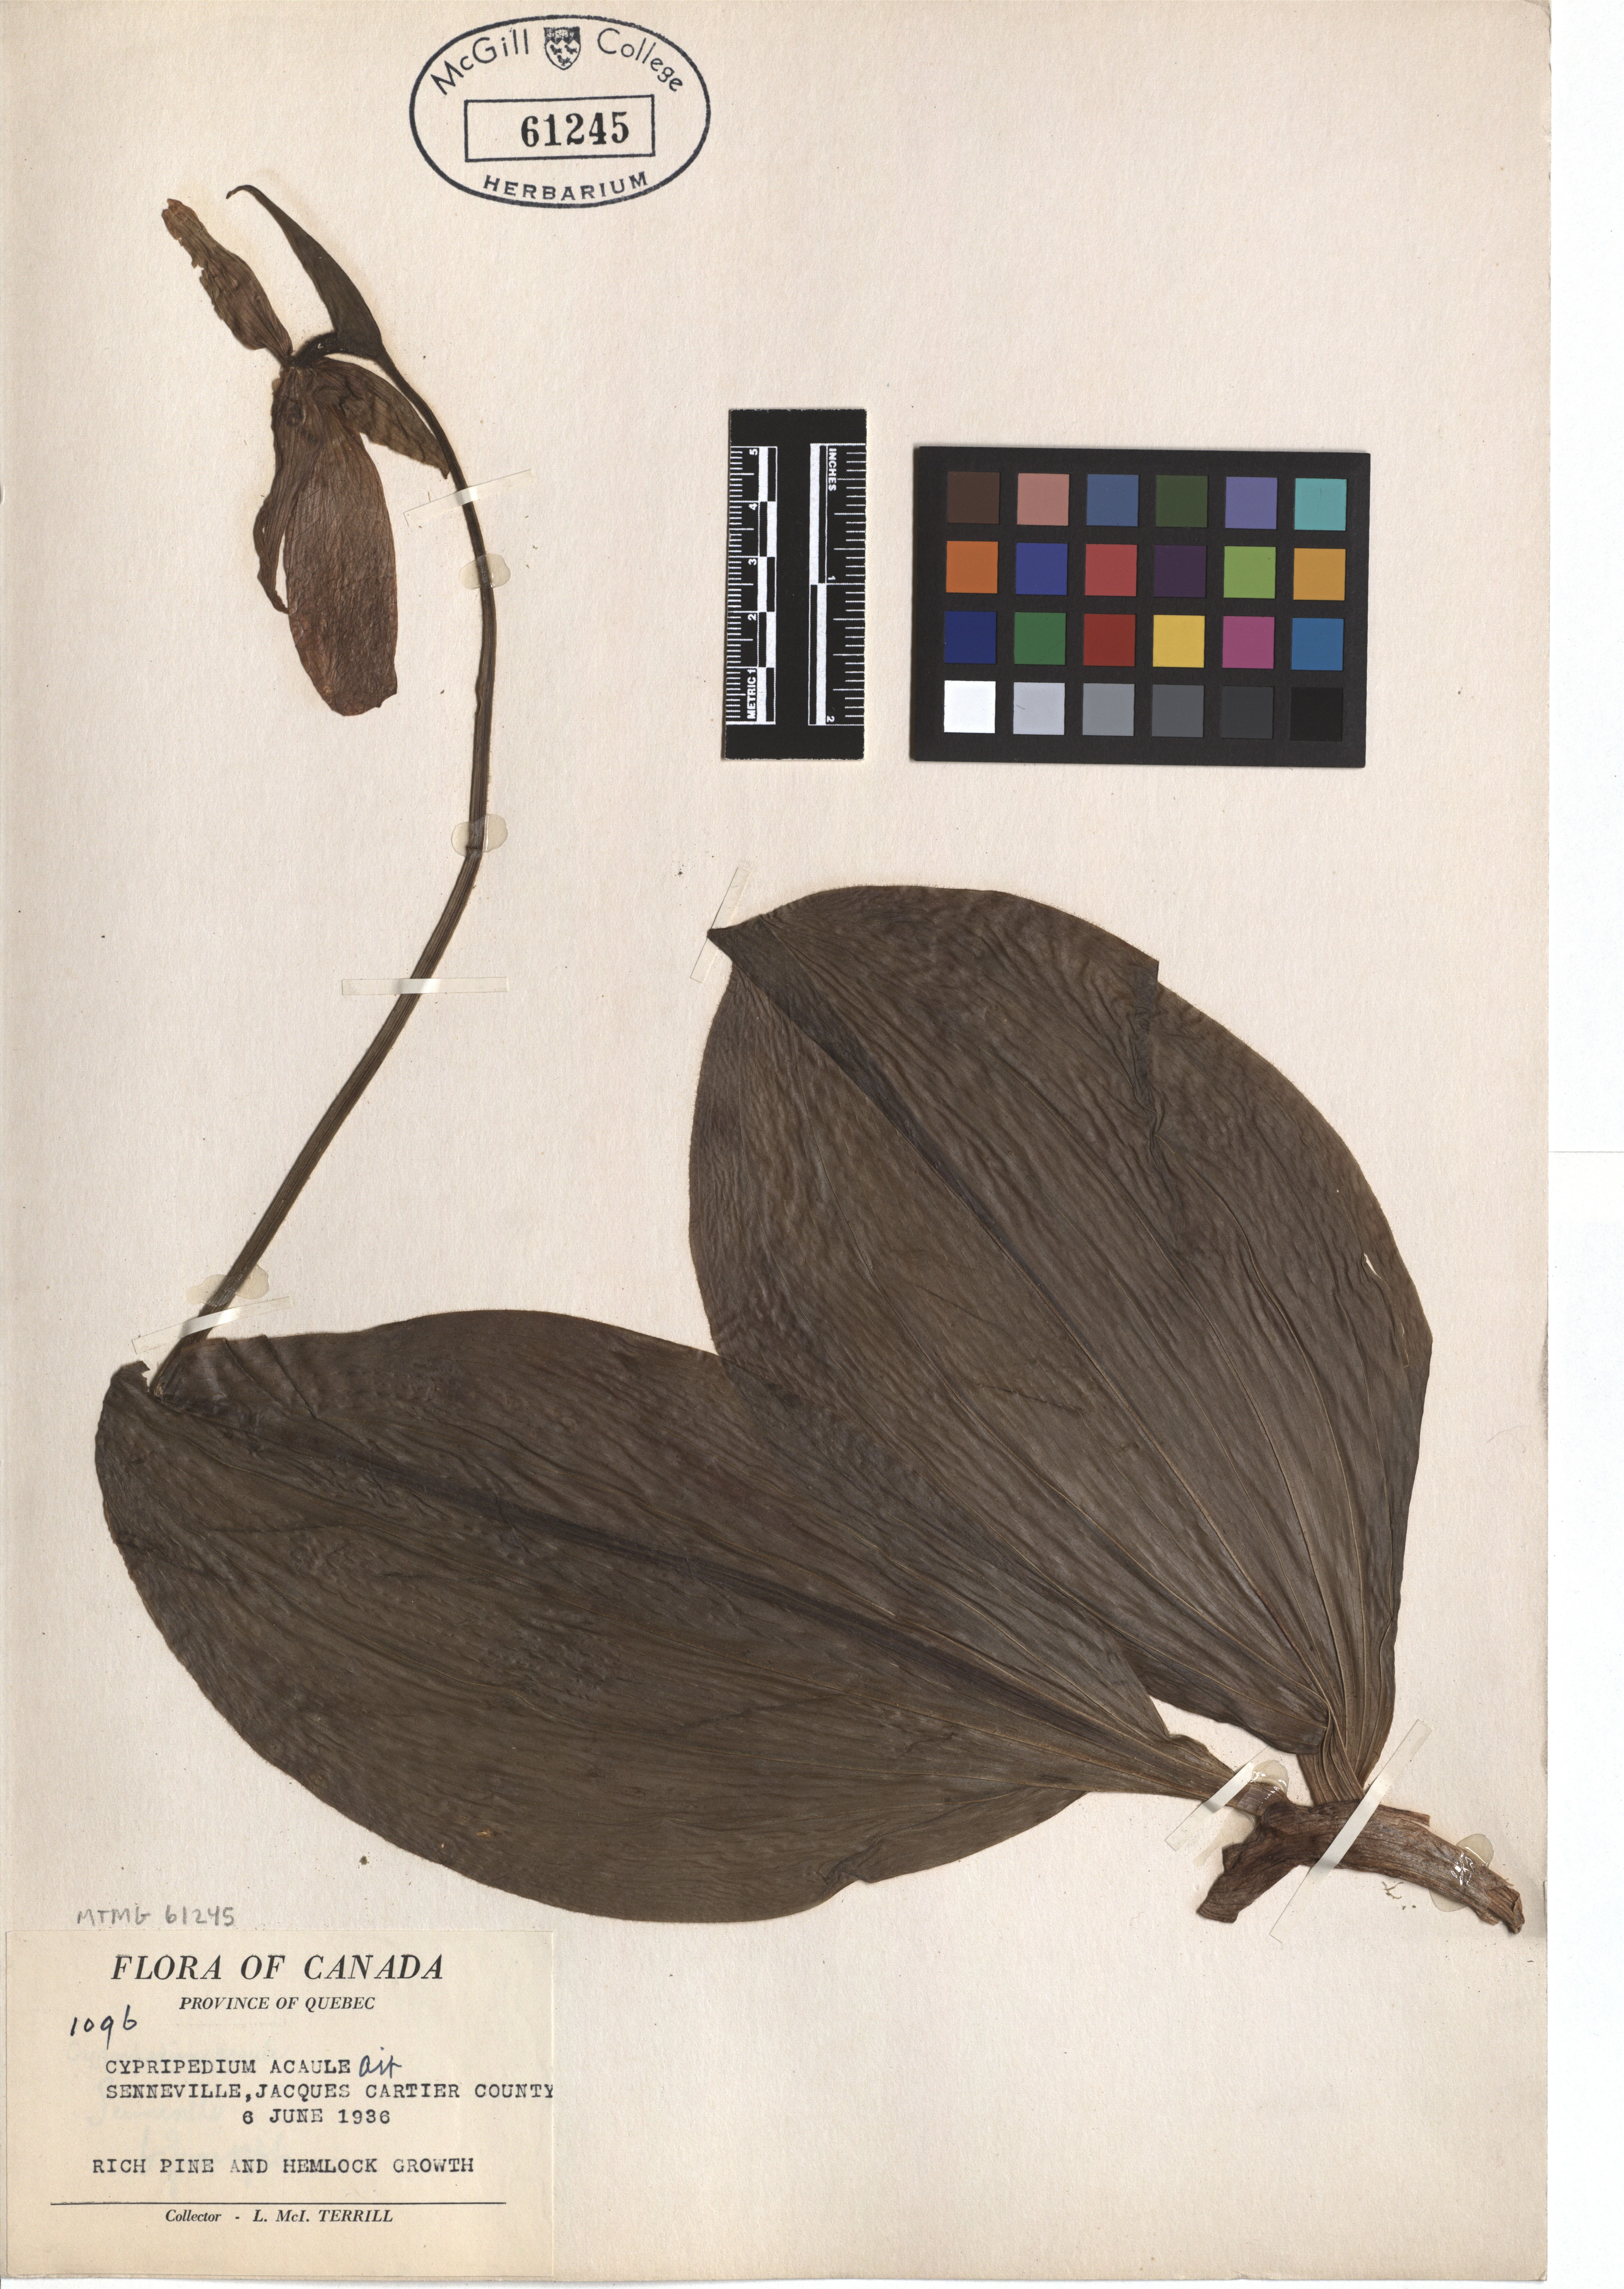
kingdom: Plantae
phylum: Tracheophyta
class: Liliopsida
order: Asparagales
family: Orchidaceae
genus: Cypripedium
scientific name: Cypripedium acaule
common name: Pink lady's-slipper
